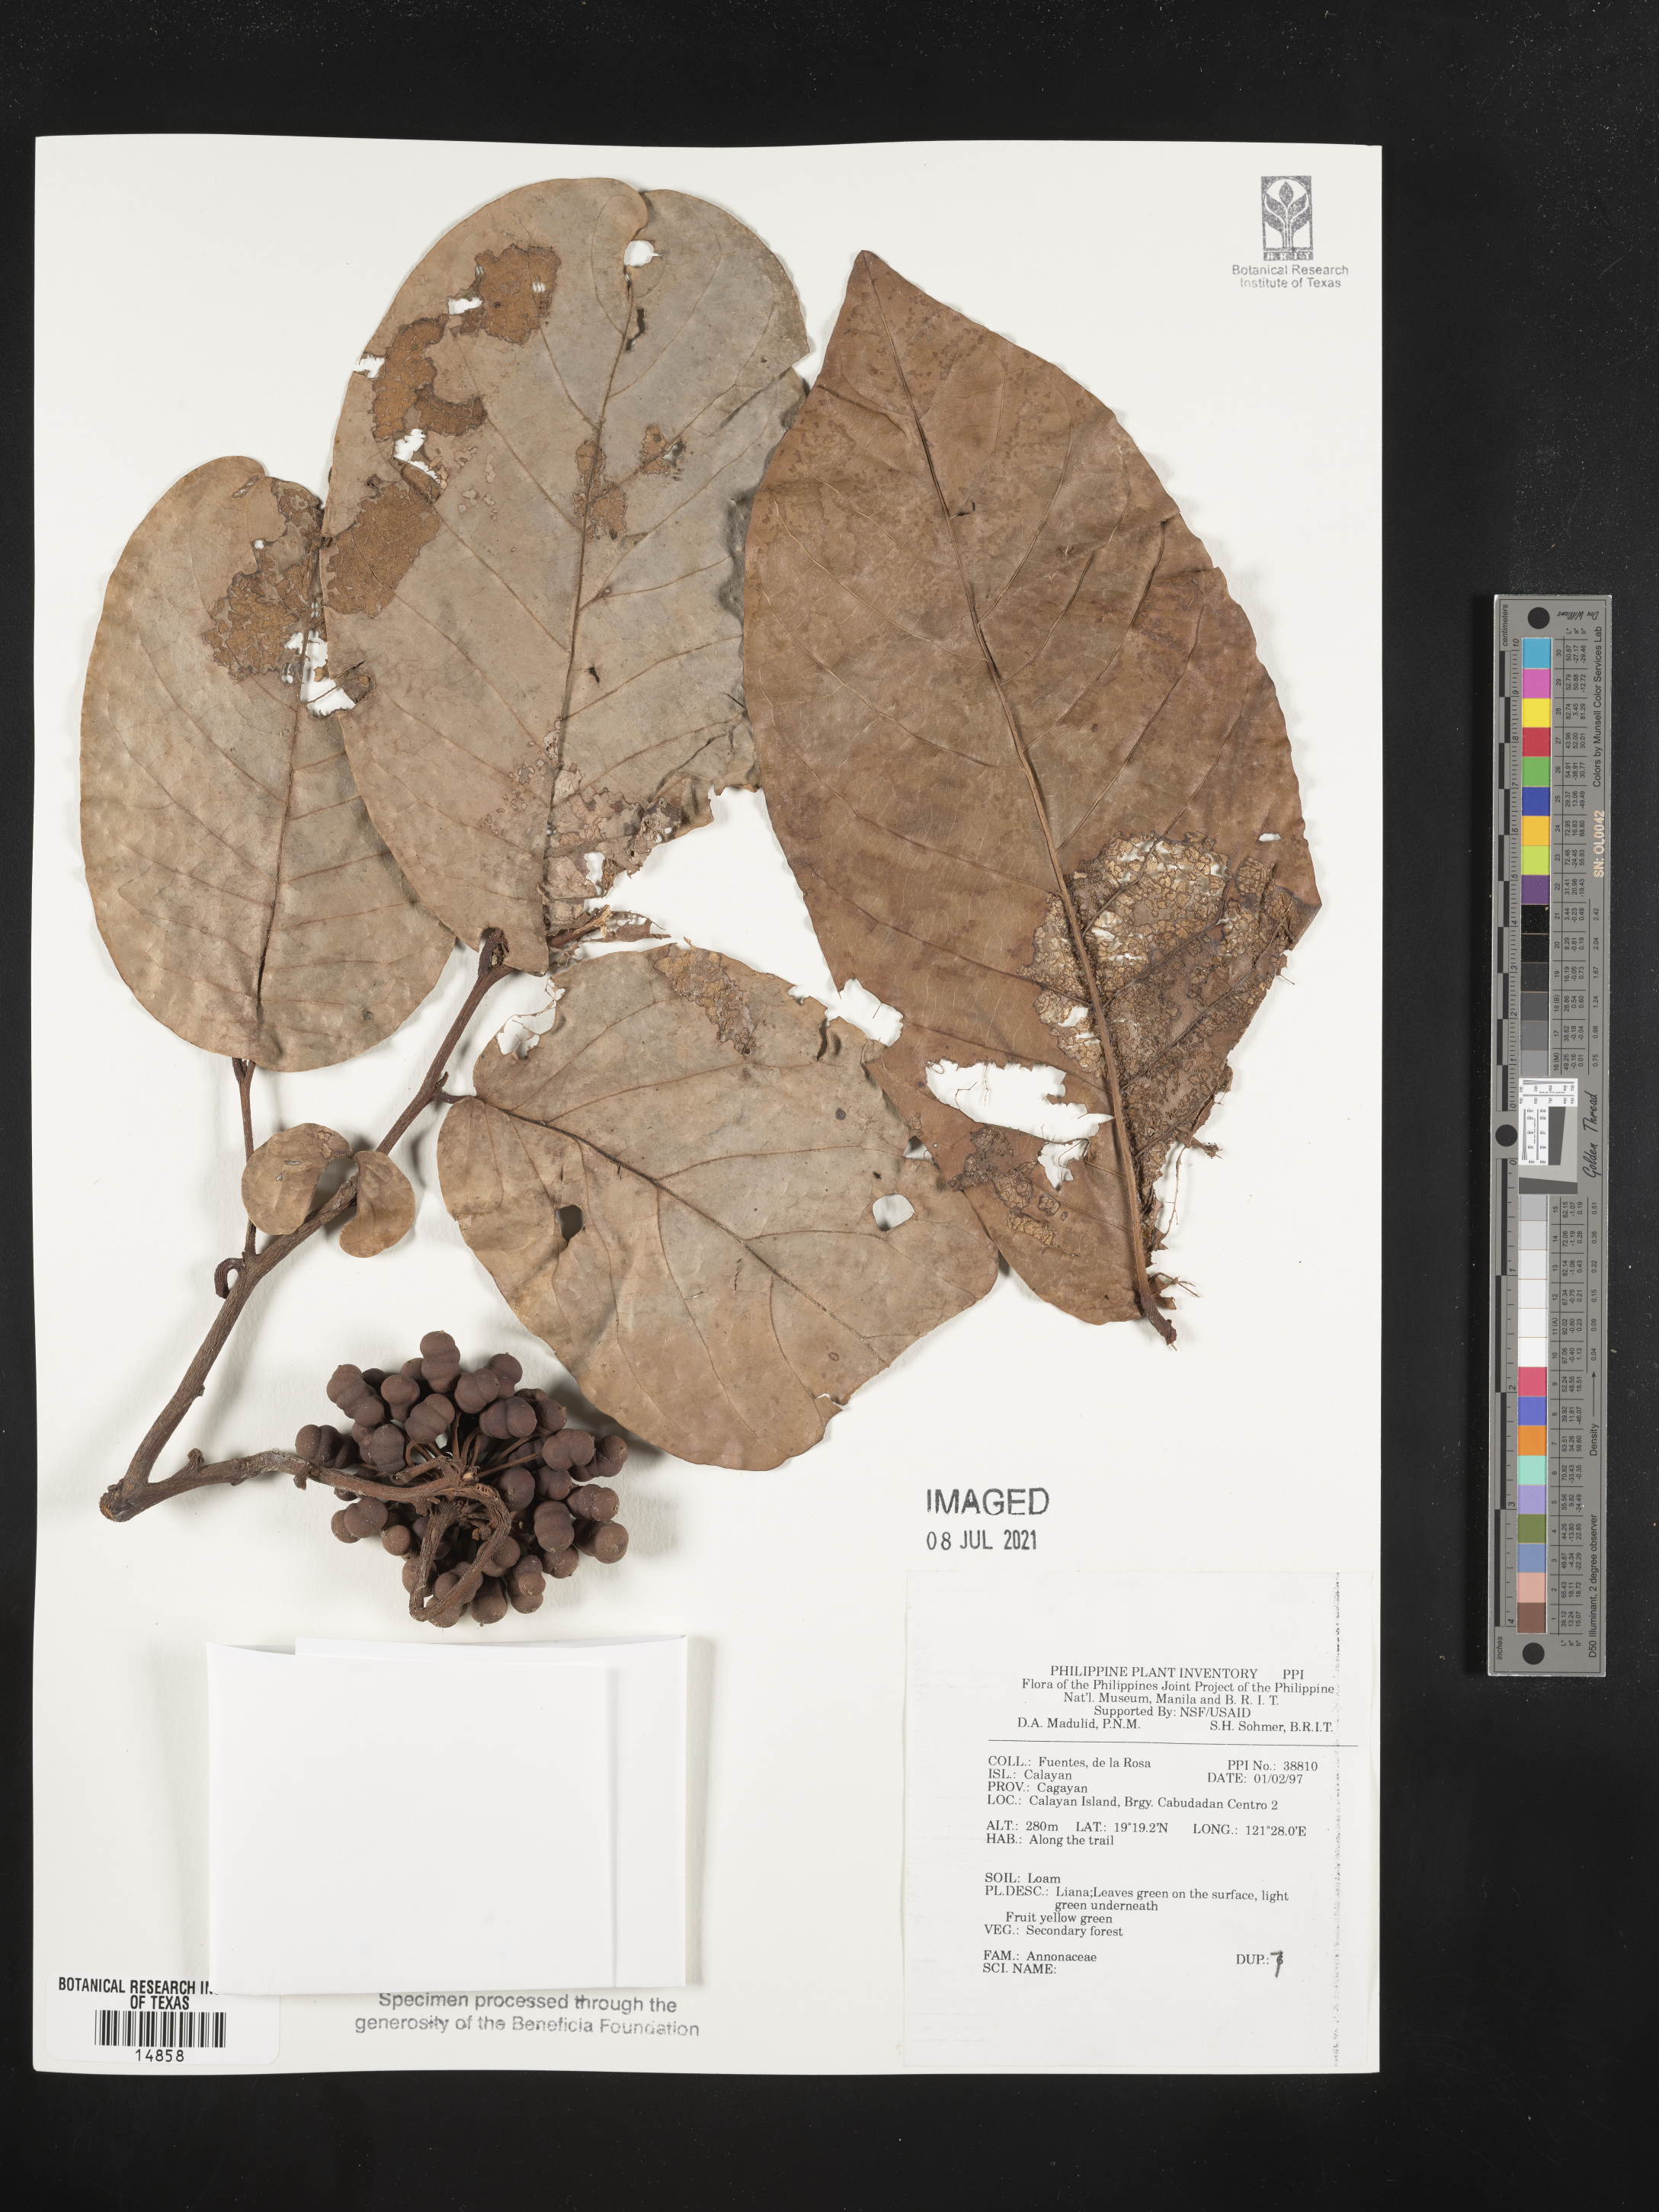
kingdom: Plantae
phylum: Tracheophyta
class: Magnoliopsida
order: Magnoliales
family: Annonaceae
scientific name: Annonaceae
